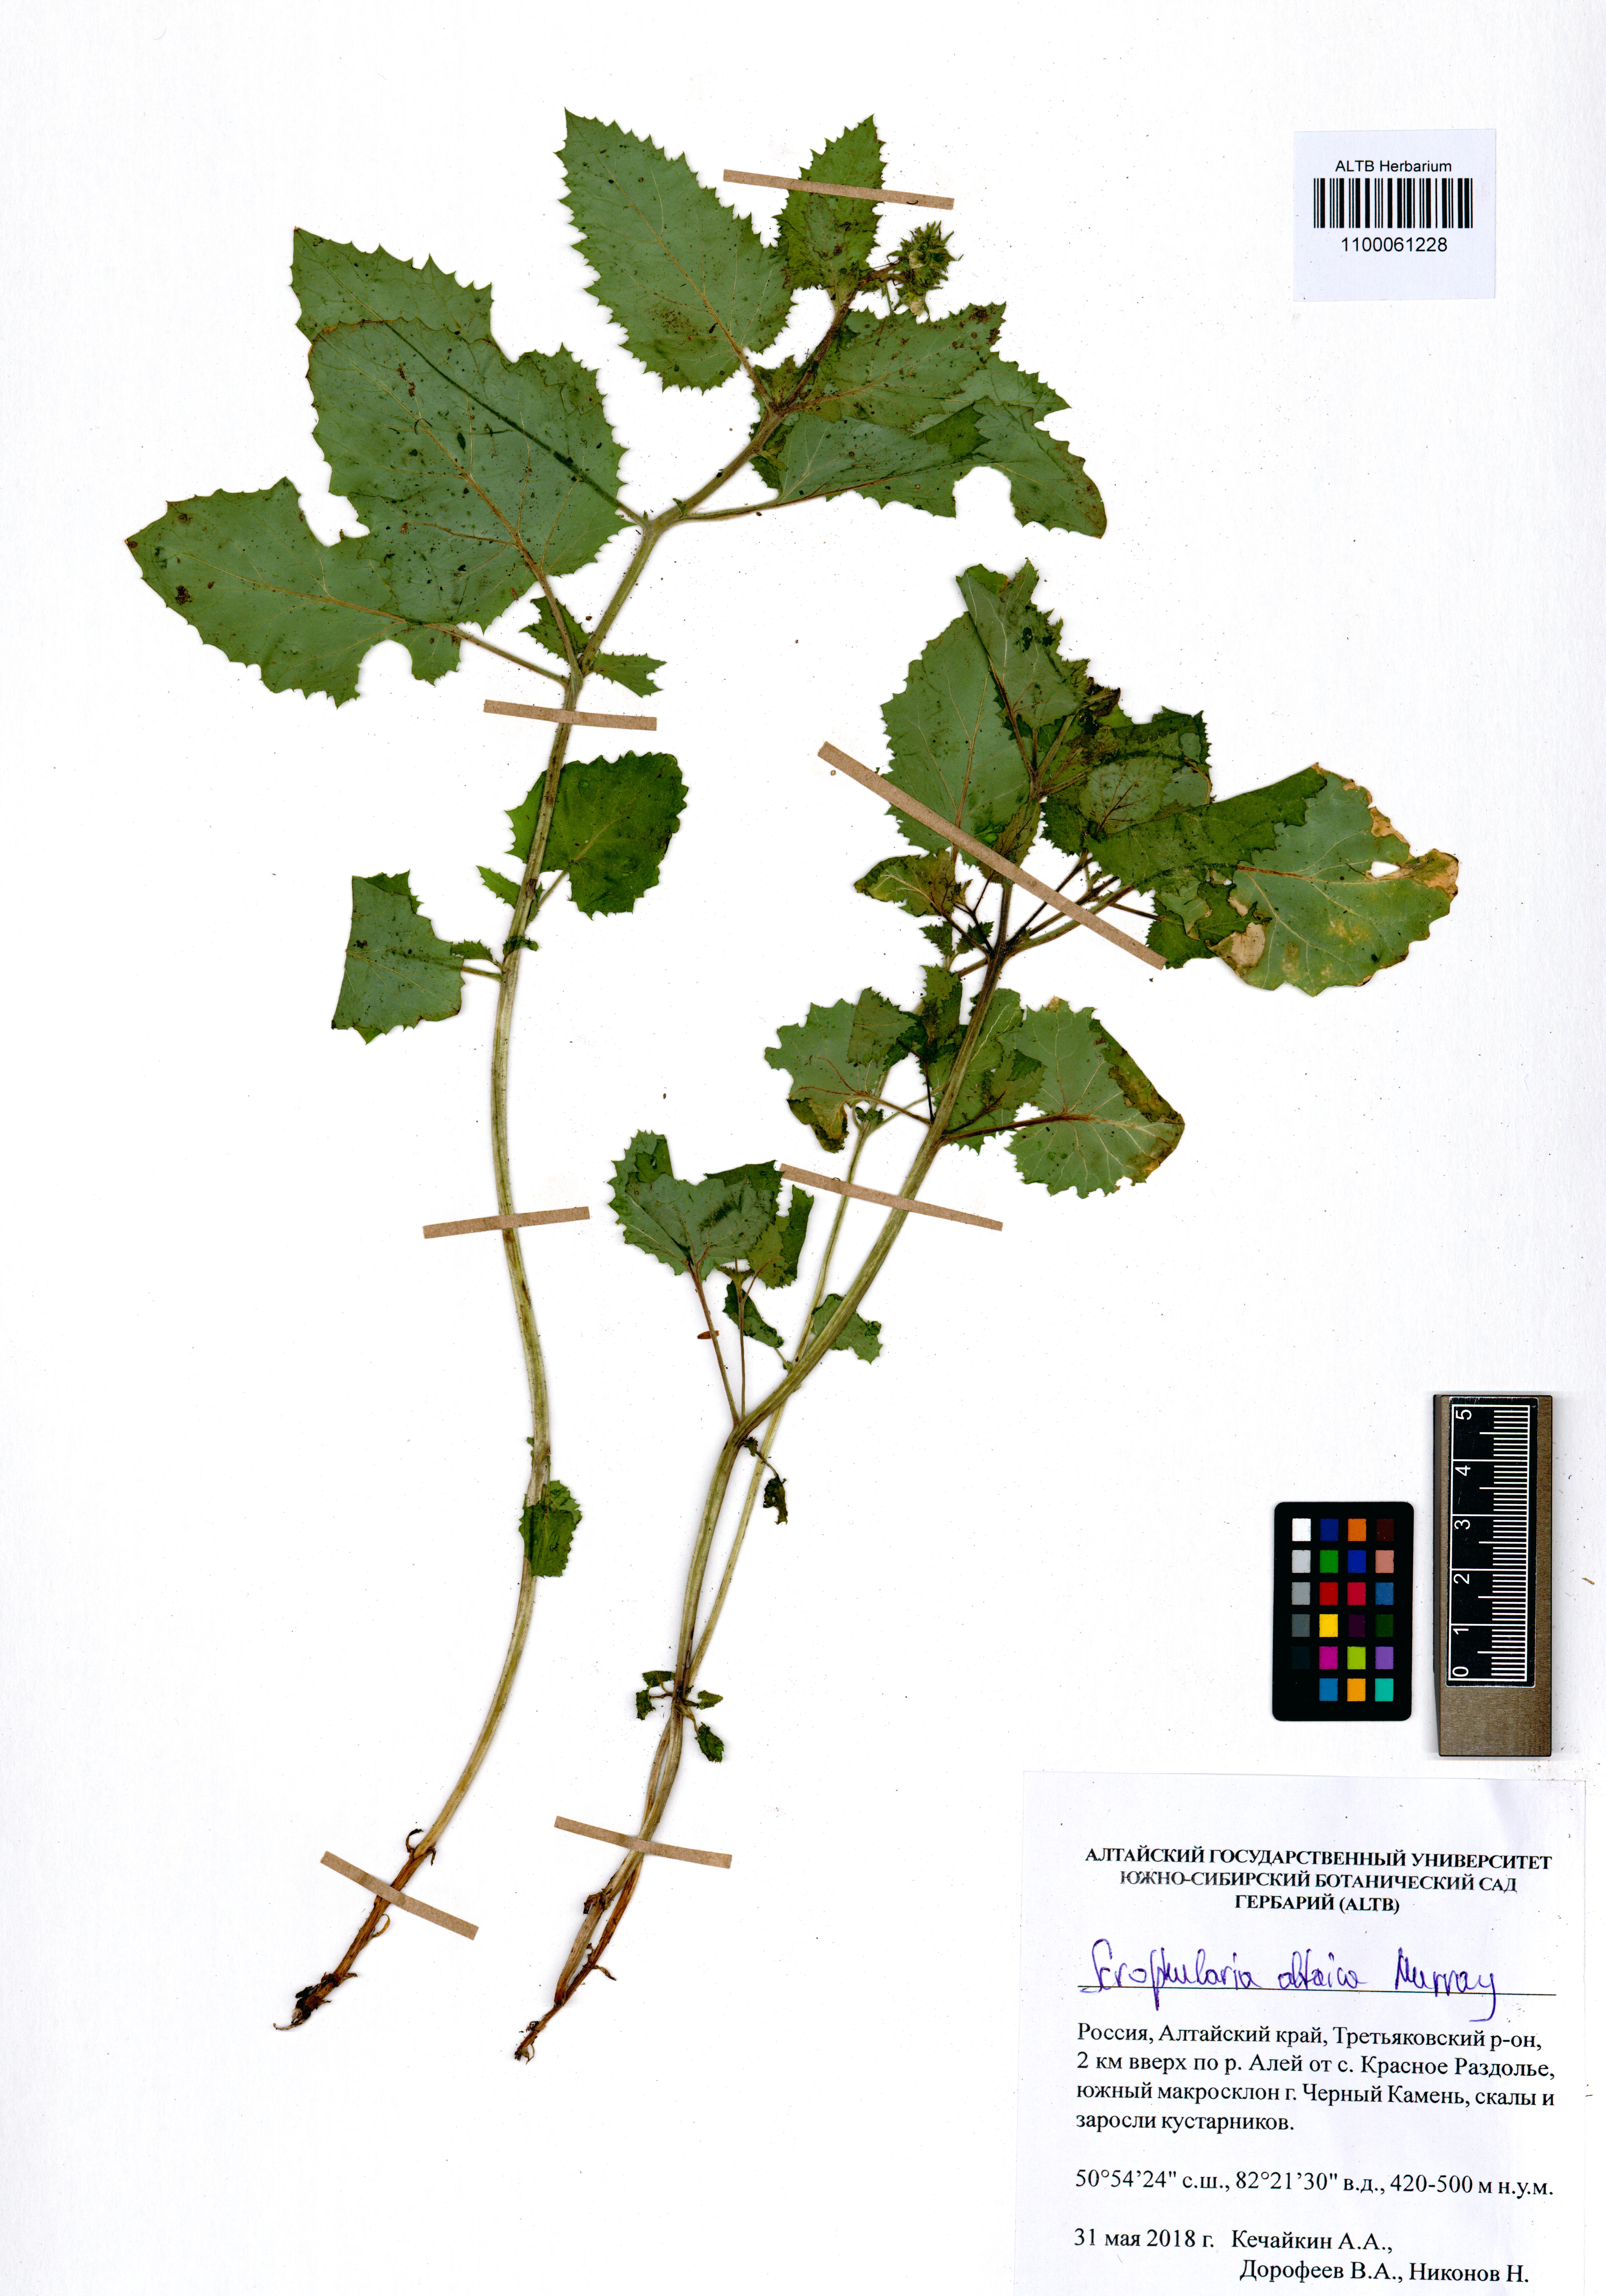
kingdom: Plantae
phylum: Tracheophyta
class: Magnoliopsida
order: Lamiales
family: Scrophulariaceae
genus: Scrophularia
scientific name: Scrophularia altaica
